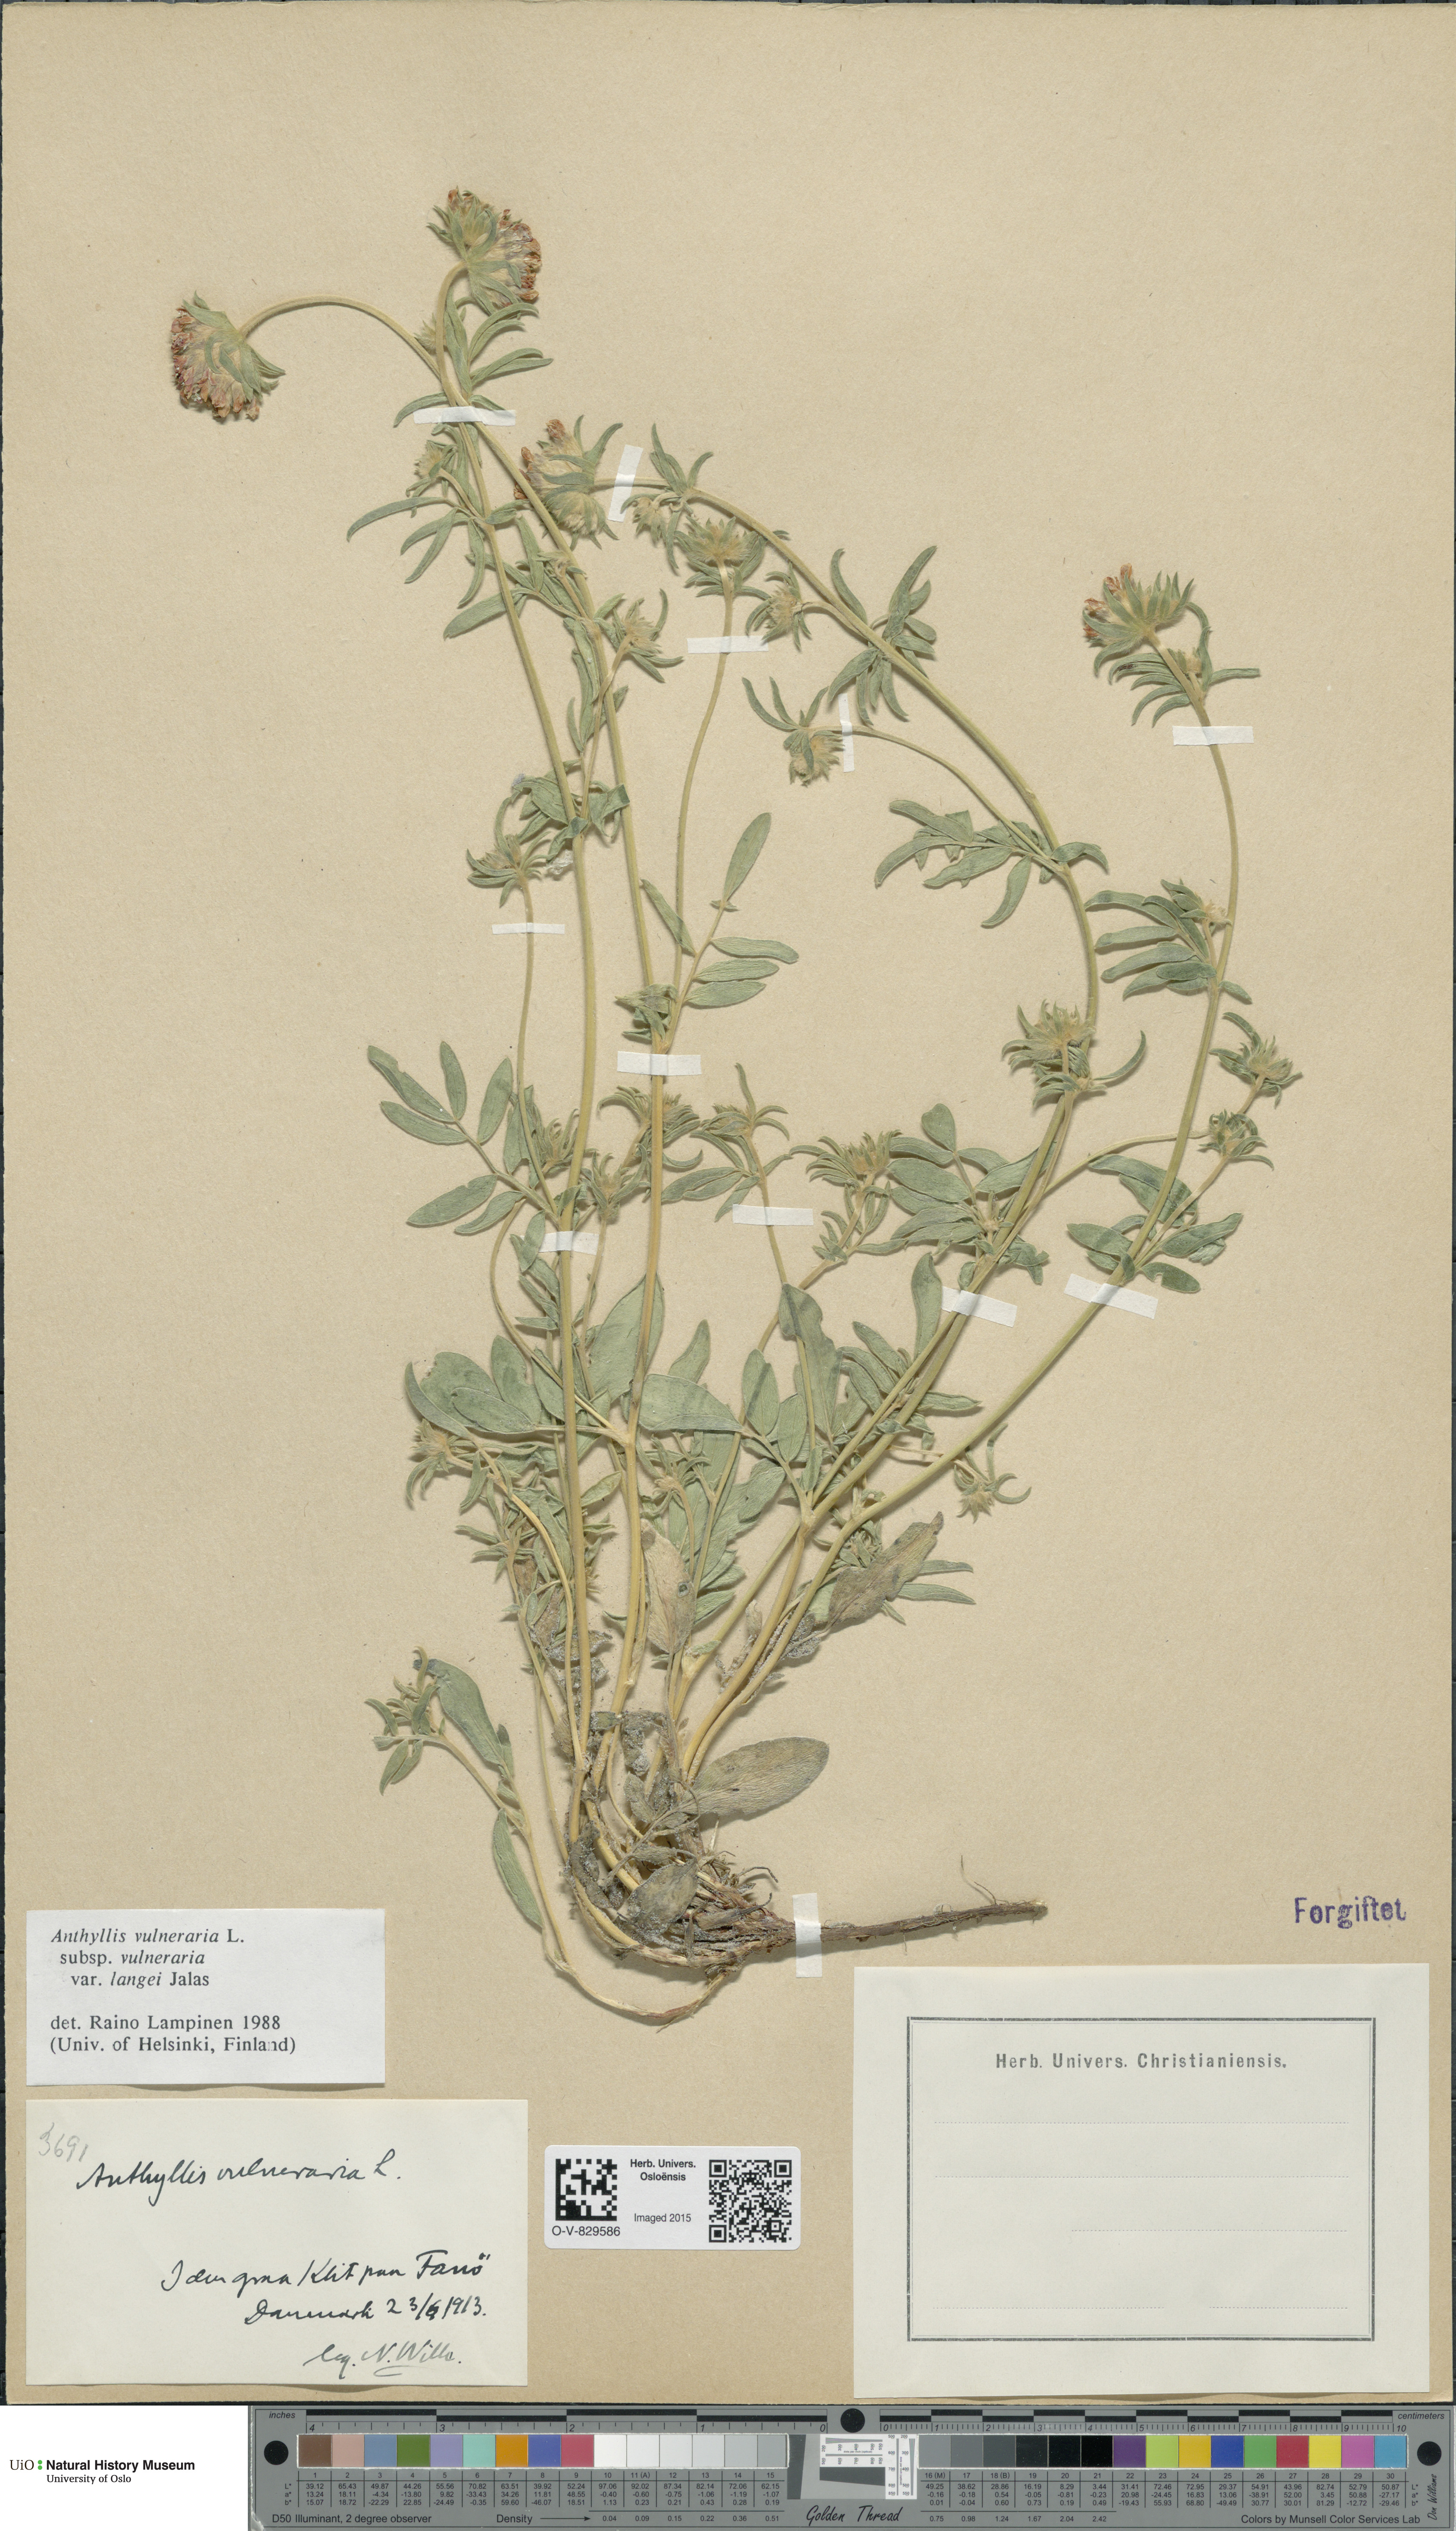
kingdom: Plantae
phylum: Tracheophyta
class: Magnoliopsida
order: Fabales
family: Fabaceae
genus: Anthyllis
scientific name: Anthyllis vulneraria
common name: Kidney vetch
